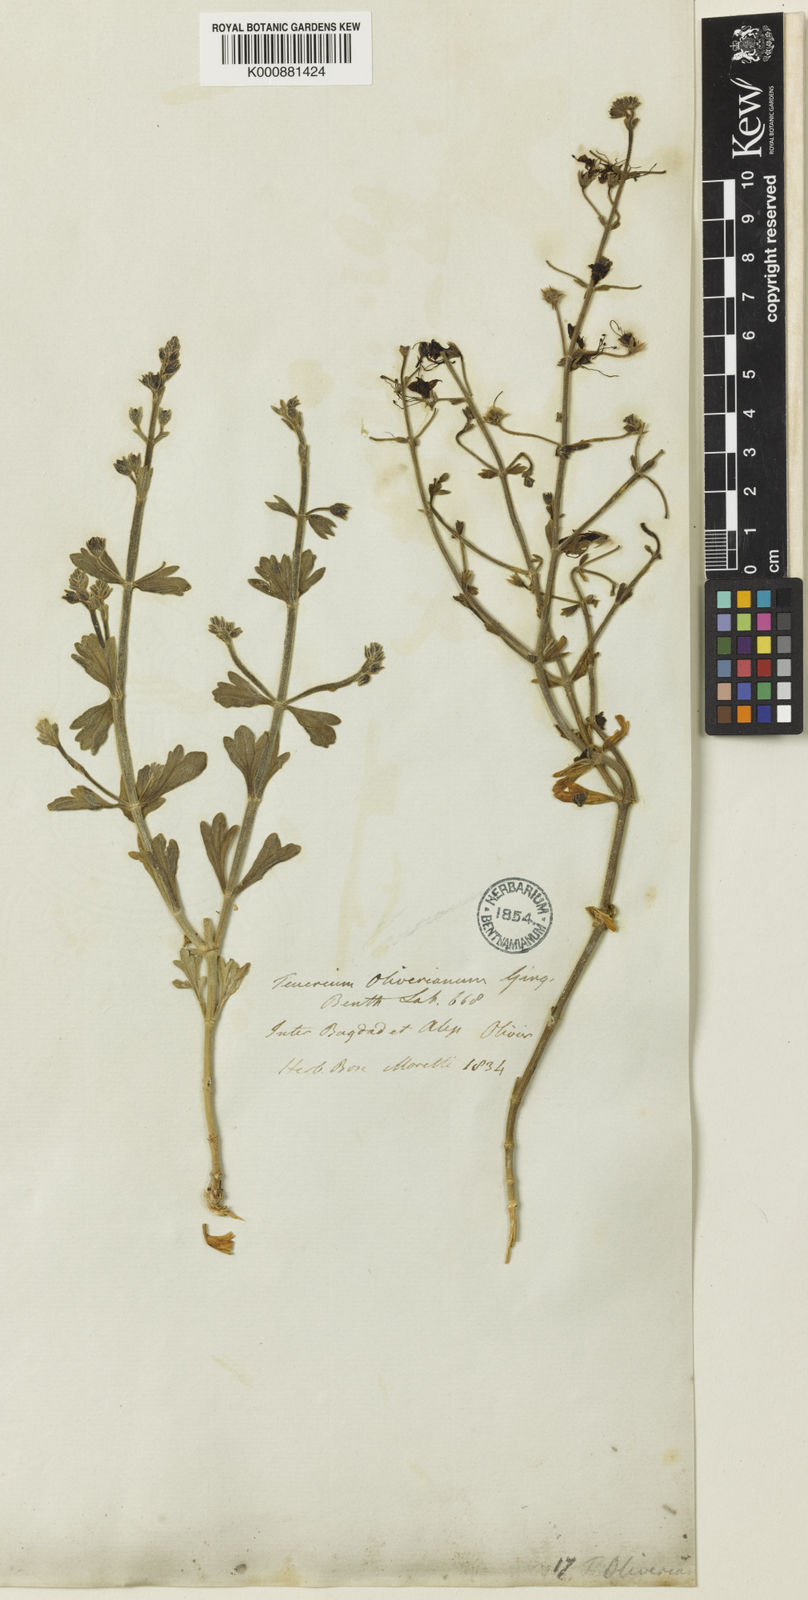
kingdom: Plantae
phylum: Tracheophyta
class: Magnoliopsida
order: Lamiales
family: Lamiaceae
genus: Teucrium
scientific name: Teucrium oliverianum
